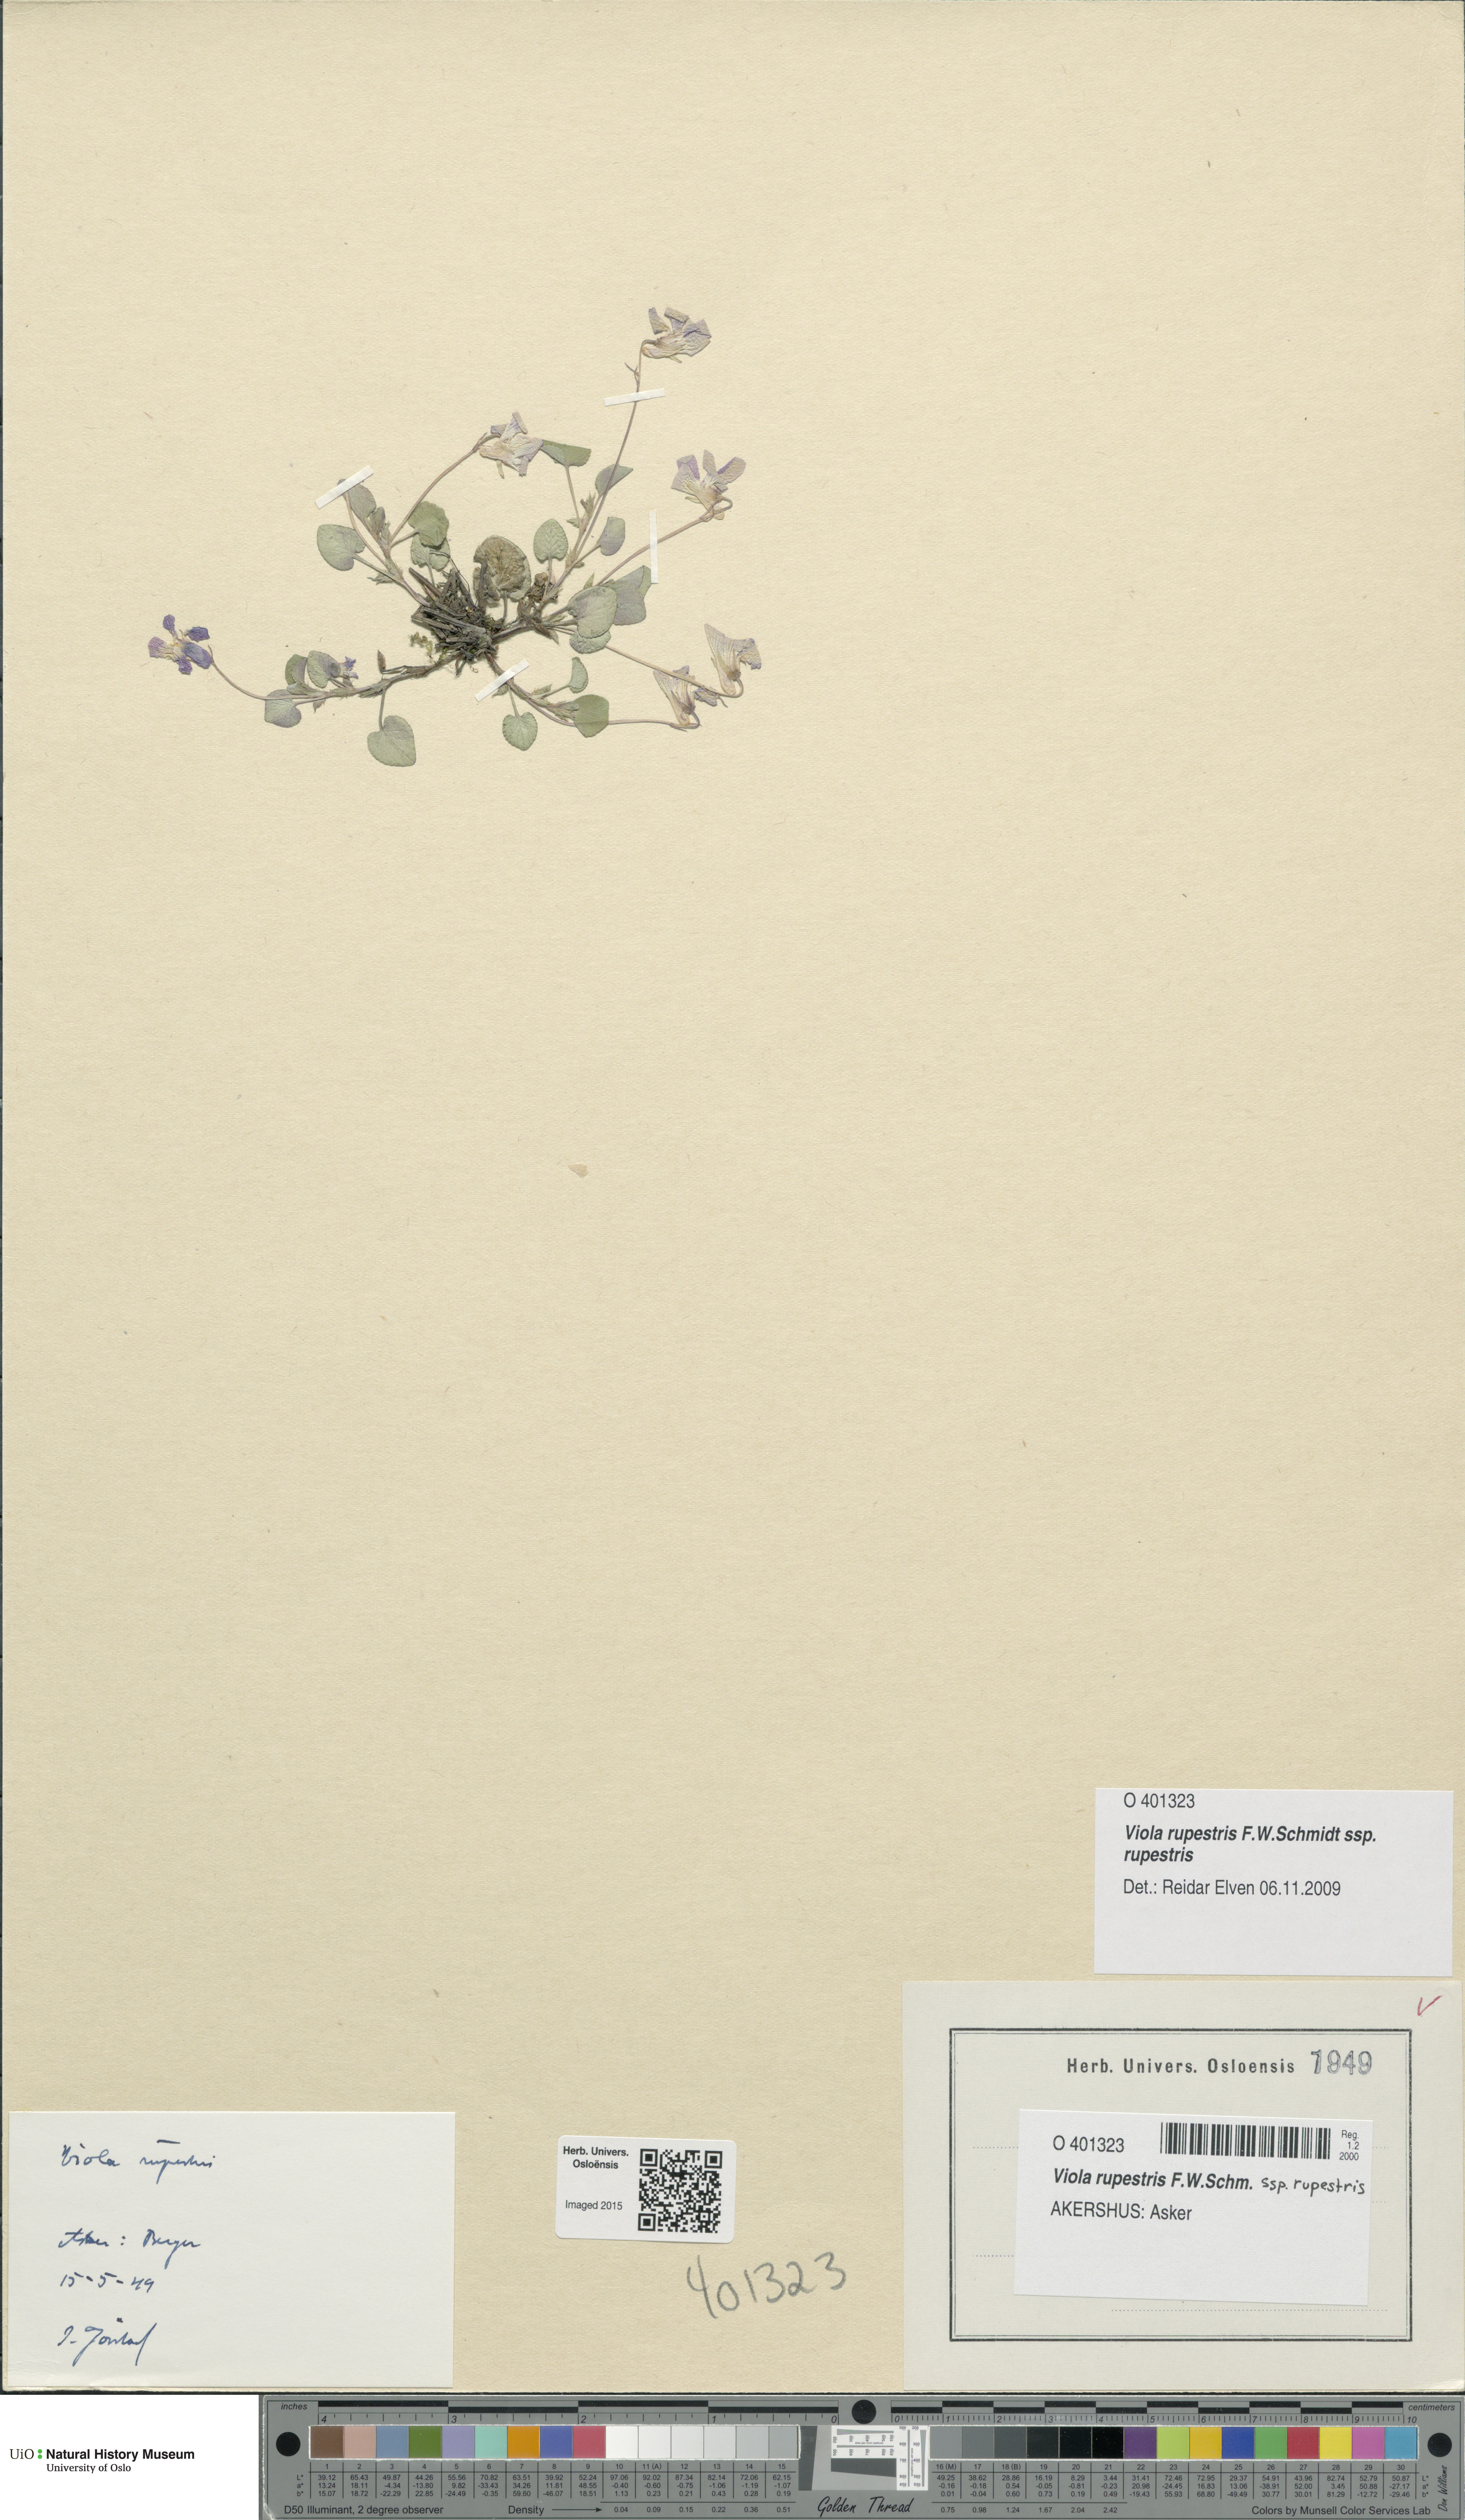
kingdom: Plantae
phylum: Tracheophyta
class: Magnoliopsida
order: Malpighiales
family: Violaceae
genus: Viola
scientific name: Viola rupestris
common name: Teesdale violet
